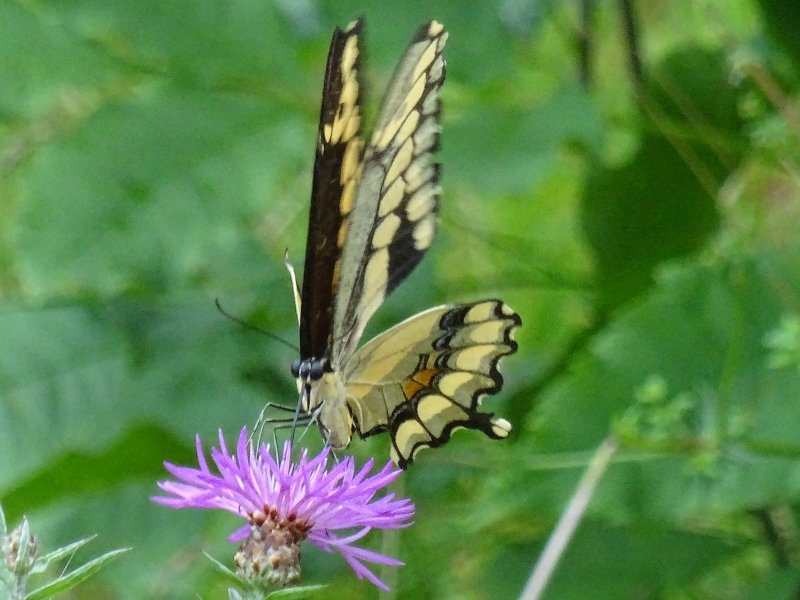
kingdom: Animalia
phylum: Arthropoda
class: Insecta
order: Lepidoptera
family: Papilionidae
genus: Papilio
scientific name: Papilio cresphontes
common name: Eastern Giant Swallowtail
